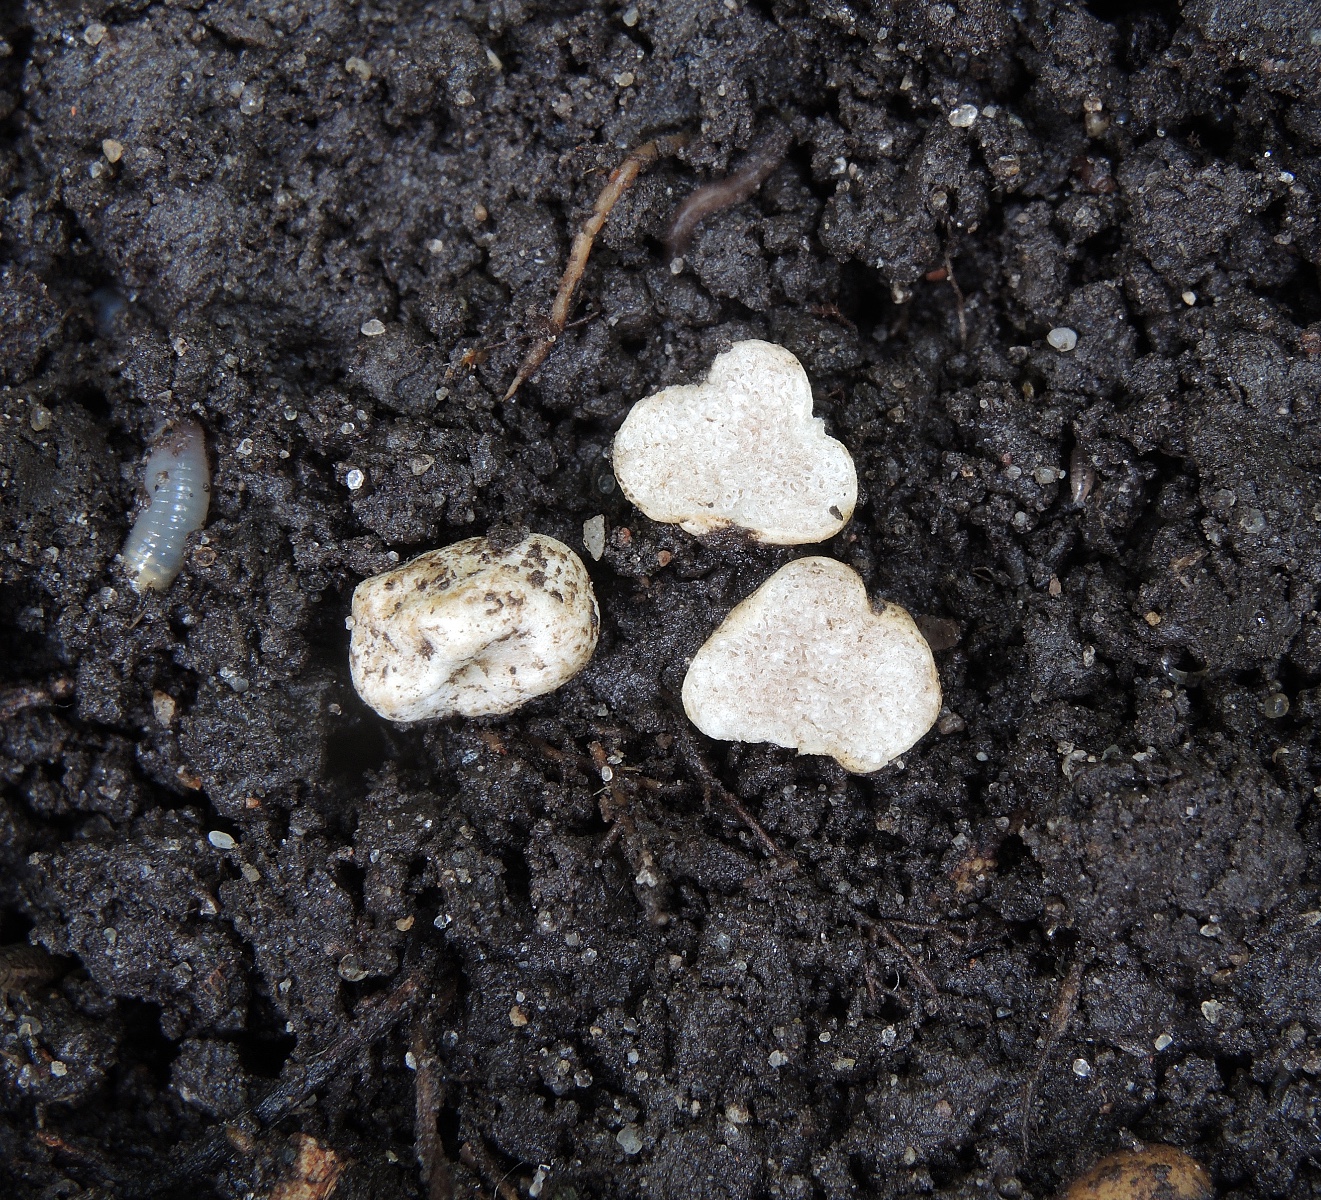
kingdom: Fungi
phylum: Basidiomycota
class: Agaricomycetes
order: Agaricales
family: Hymenogastraceae
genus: Hymenogaster
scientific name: Hymenogaster
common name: knoldtrøffel
